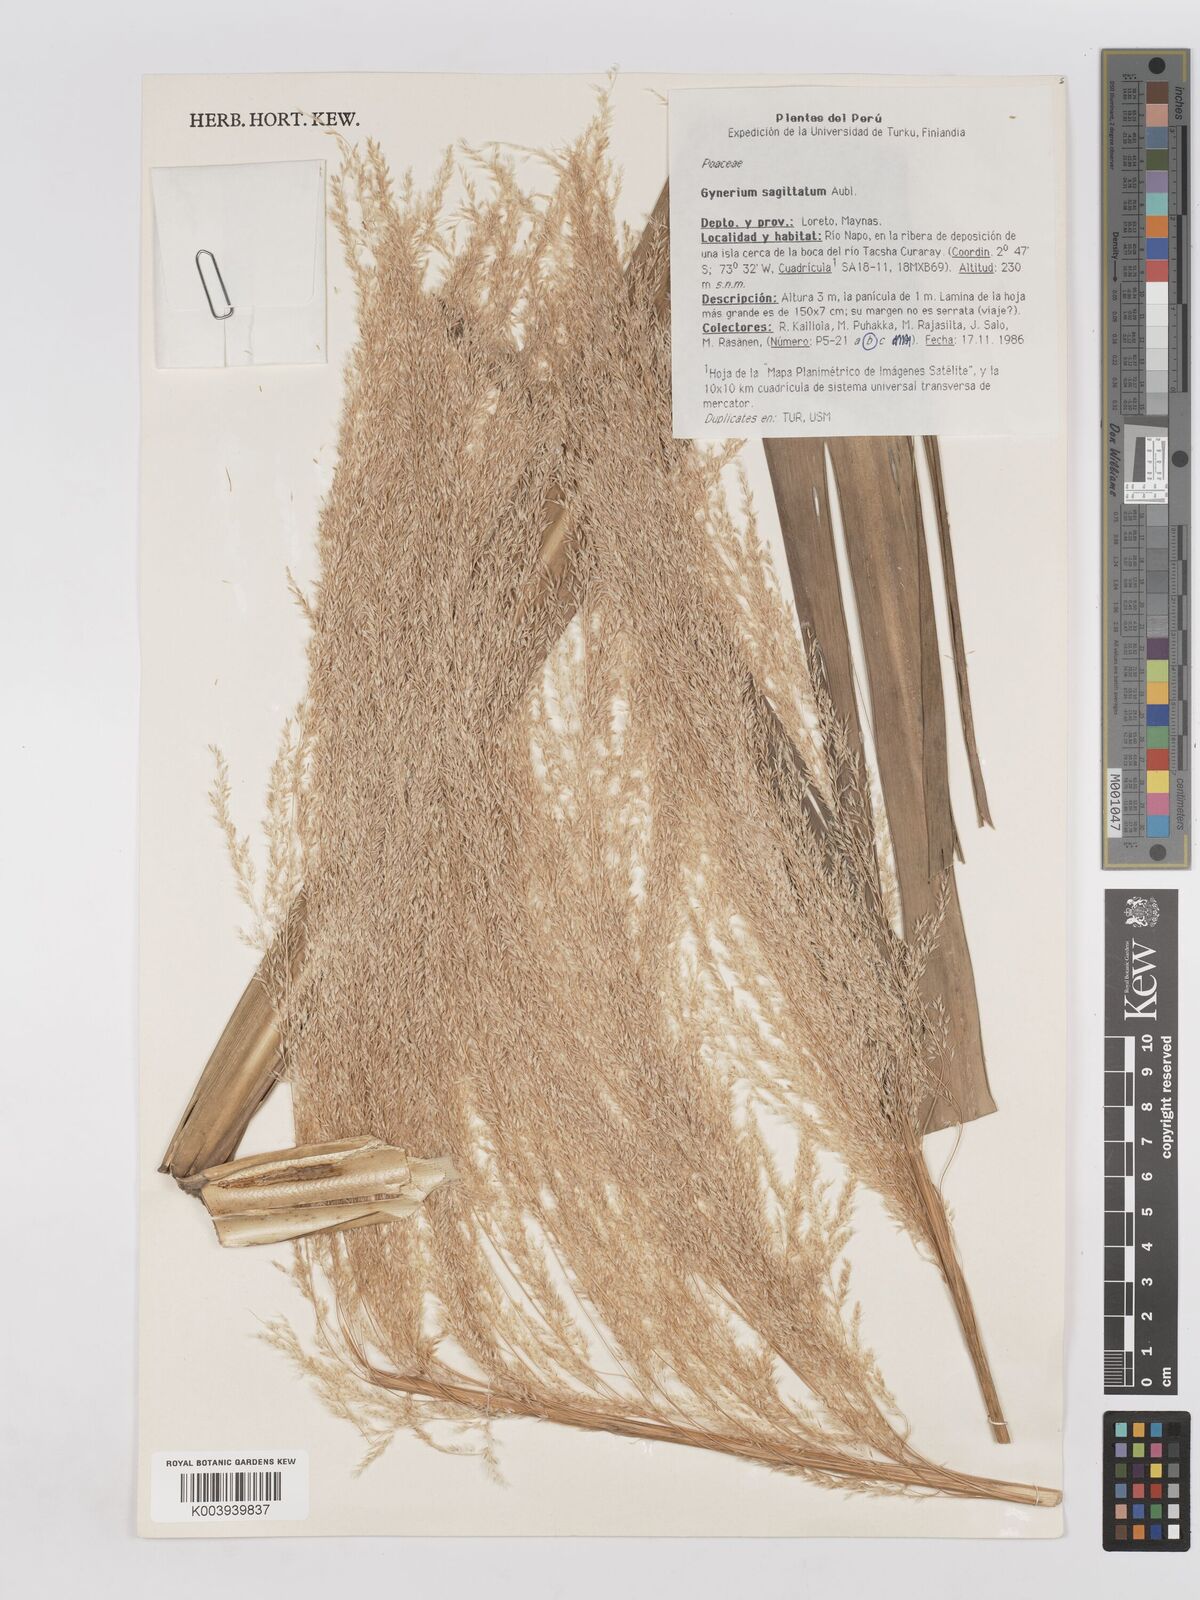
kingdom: Plantae
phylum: Tracheophyta
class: Liliopsida
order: Poales
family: Poaceae
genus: Gynerium
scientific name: Gynerium sagittatum
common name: Wild cane
